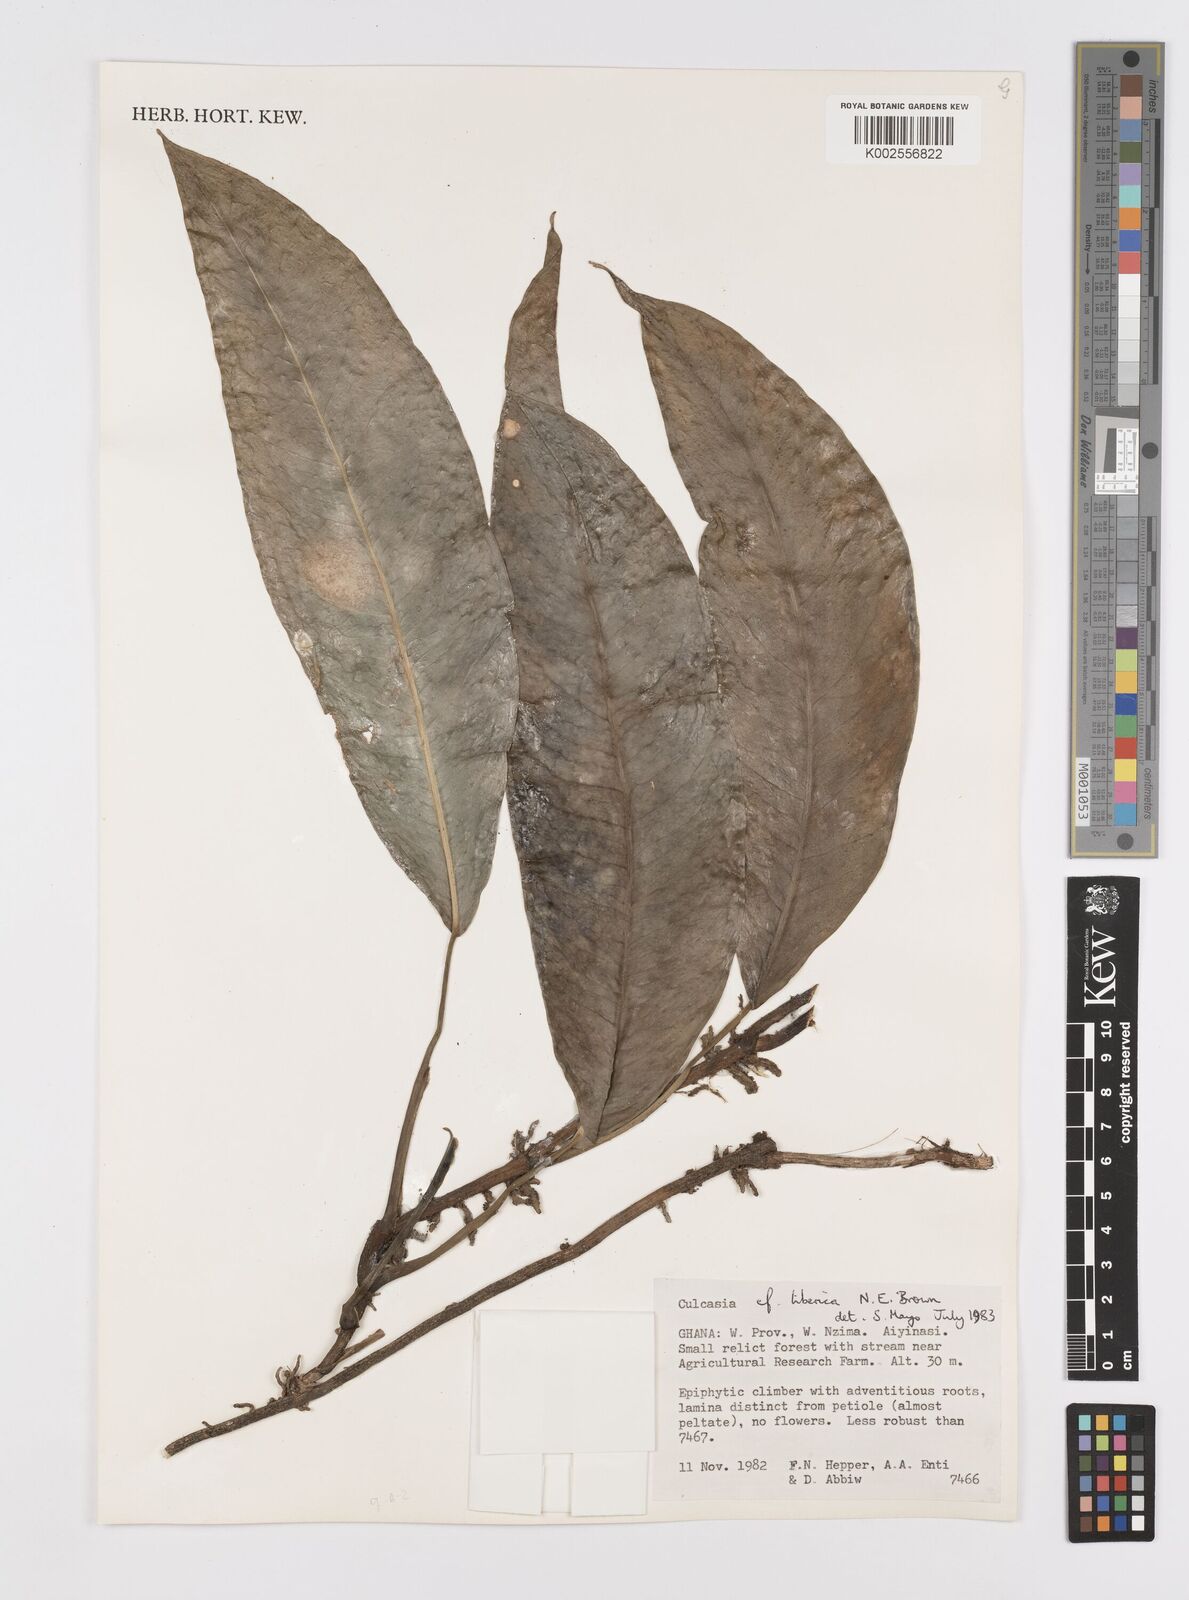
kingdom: Plantae
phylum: Tracheophyta
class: Liliopsida
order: Alismatales
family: Araceae
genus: Culcasia
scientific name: Culcasia liberica
